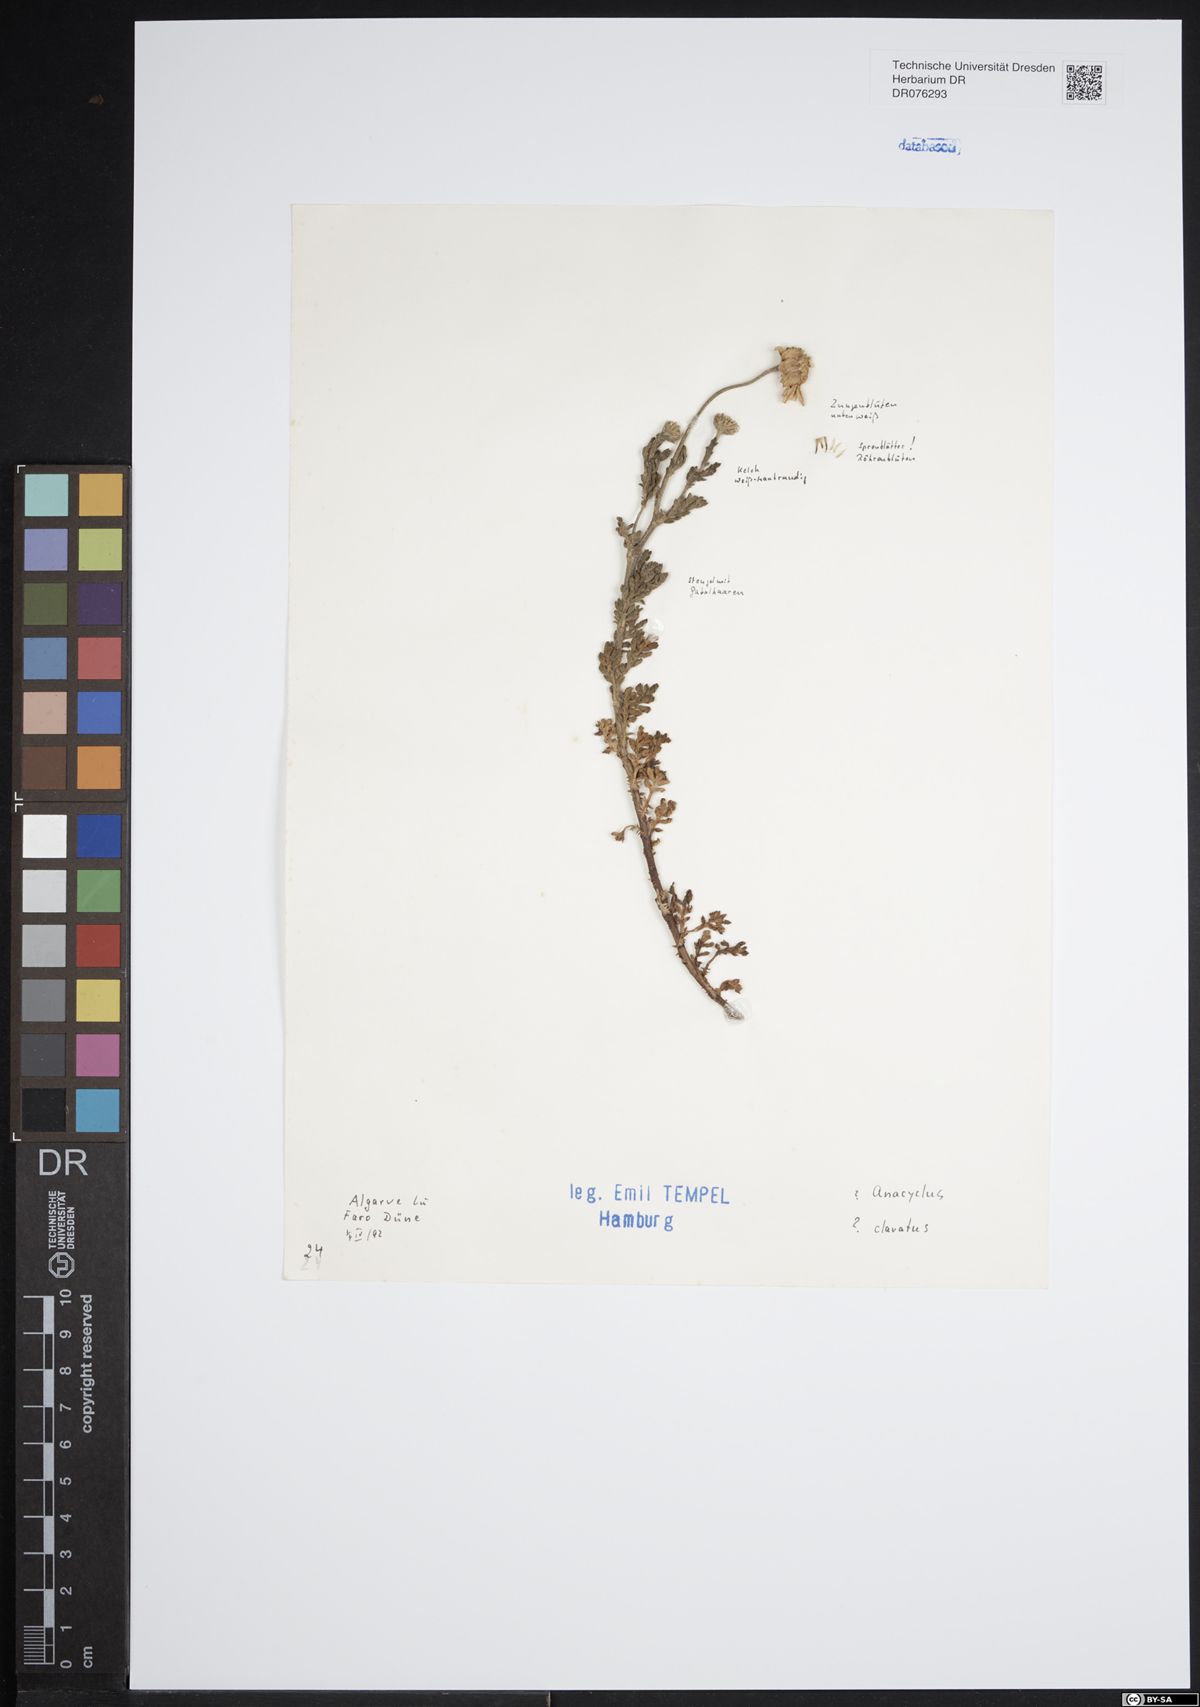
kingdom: Plantae
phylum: Tracheophyta
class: Magnoliopsida
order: Asterales
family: Asteraceae
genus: Anacyclus
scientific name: Anacyclus clavatus
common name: Whitebuttons
